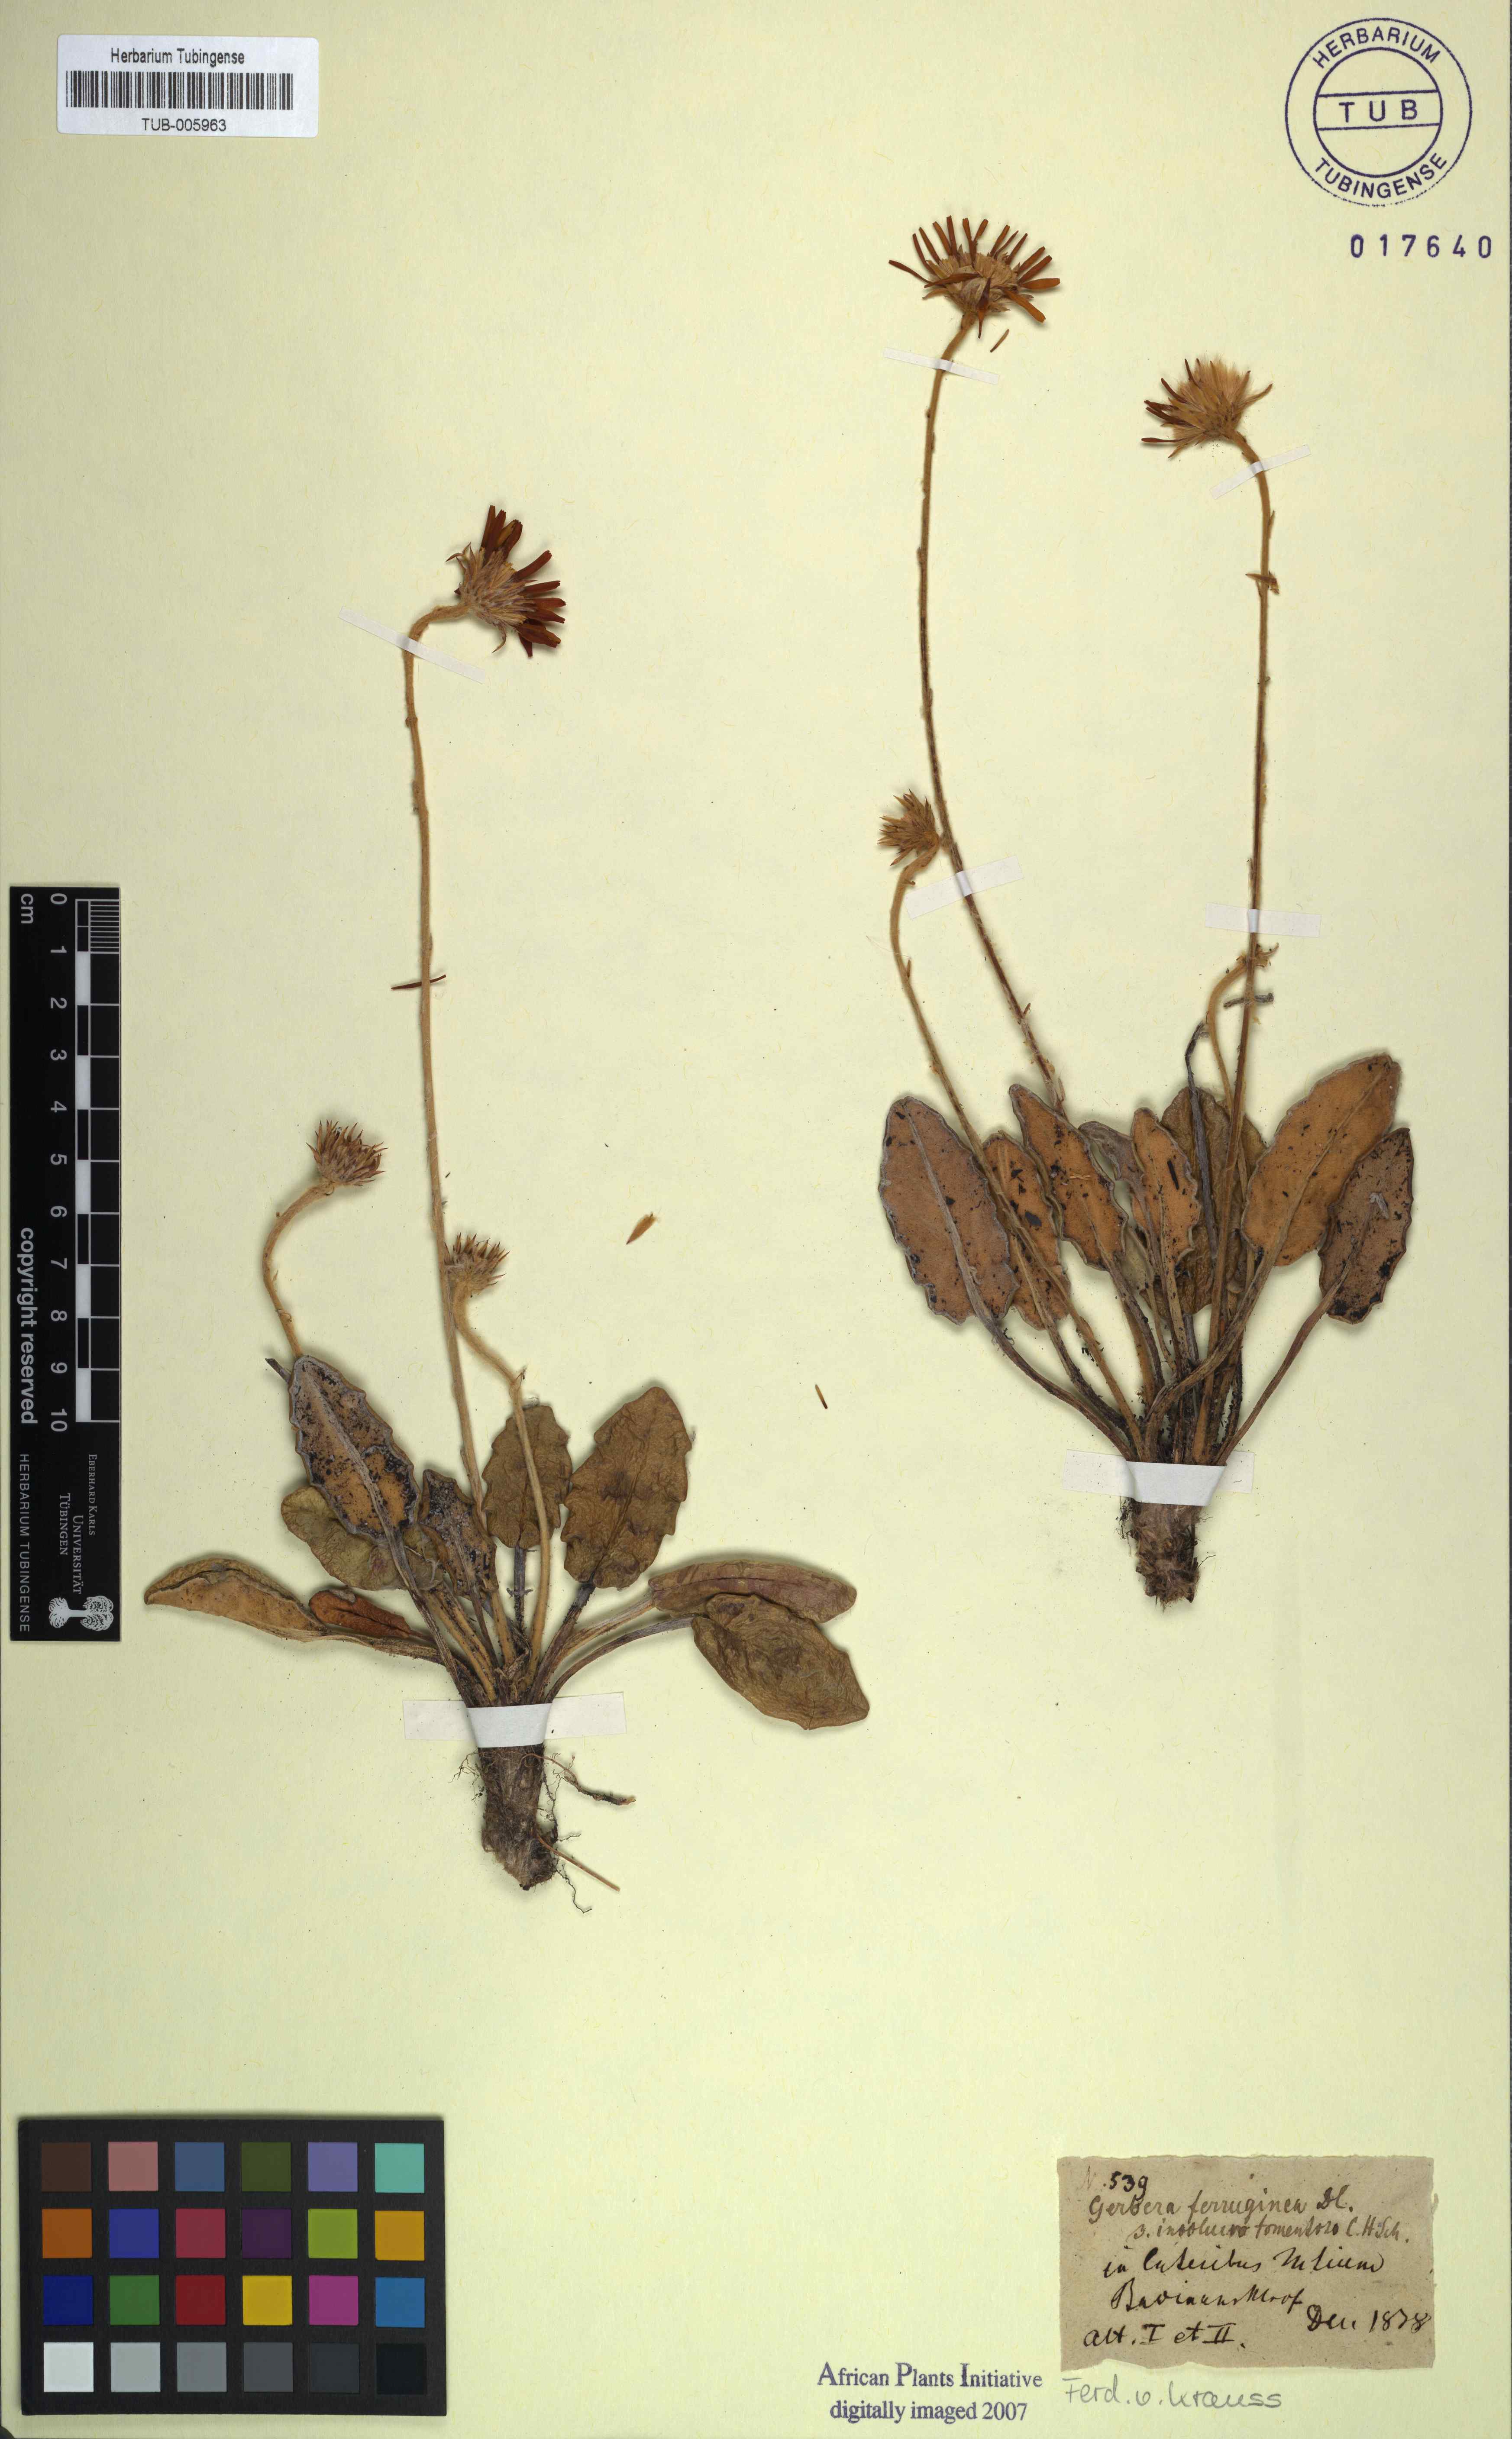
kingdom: Plantae
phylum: Tracheophyta
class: Magnoliopsida
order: Asterales
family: Asteraceae
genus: Gerbera
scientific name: Gerbera crocea
